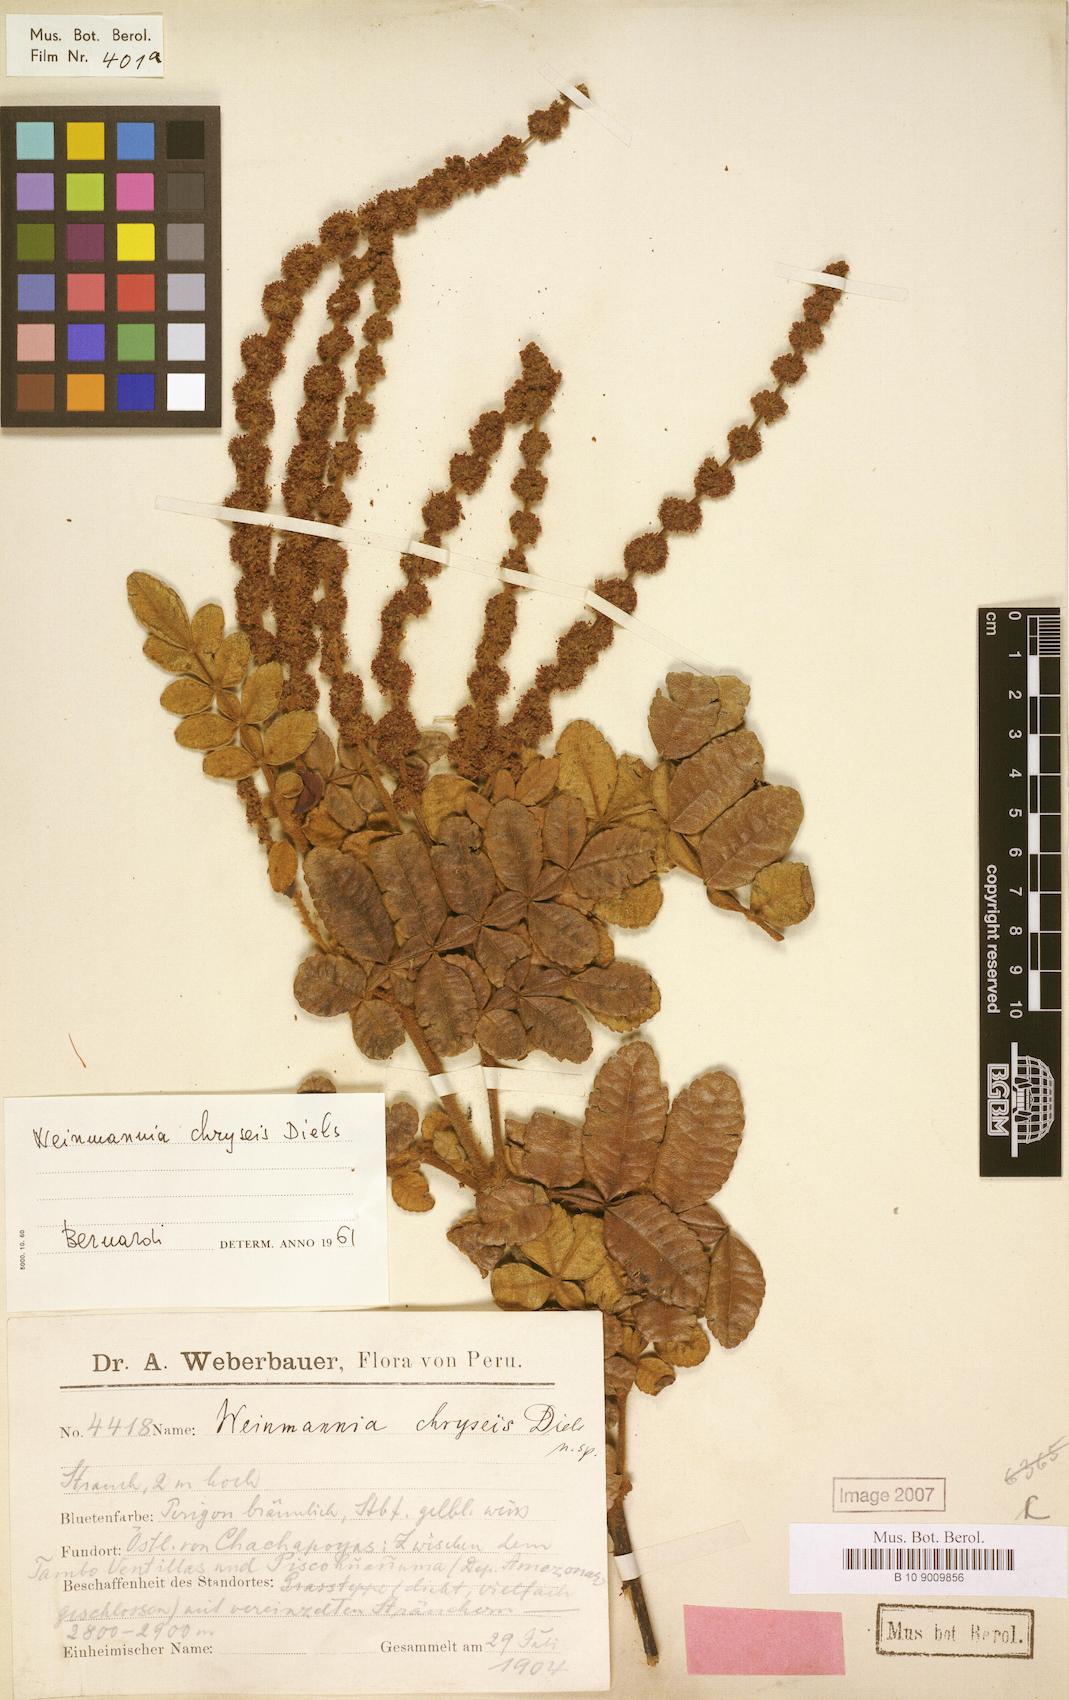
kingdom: Plantae
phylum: Tracheophyta
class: Magnoliopsida
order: Oxalidales
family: Cunoniaceae
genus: Weinmannia
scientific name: Weinmannia chryseis
